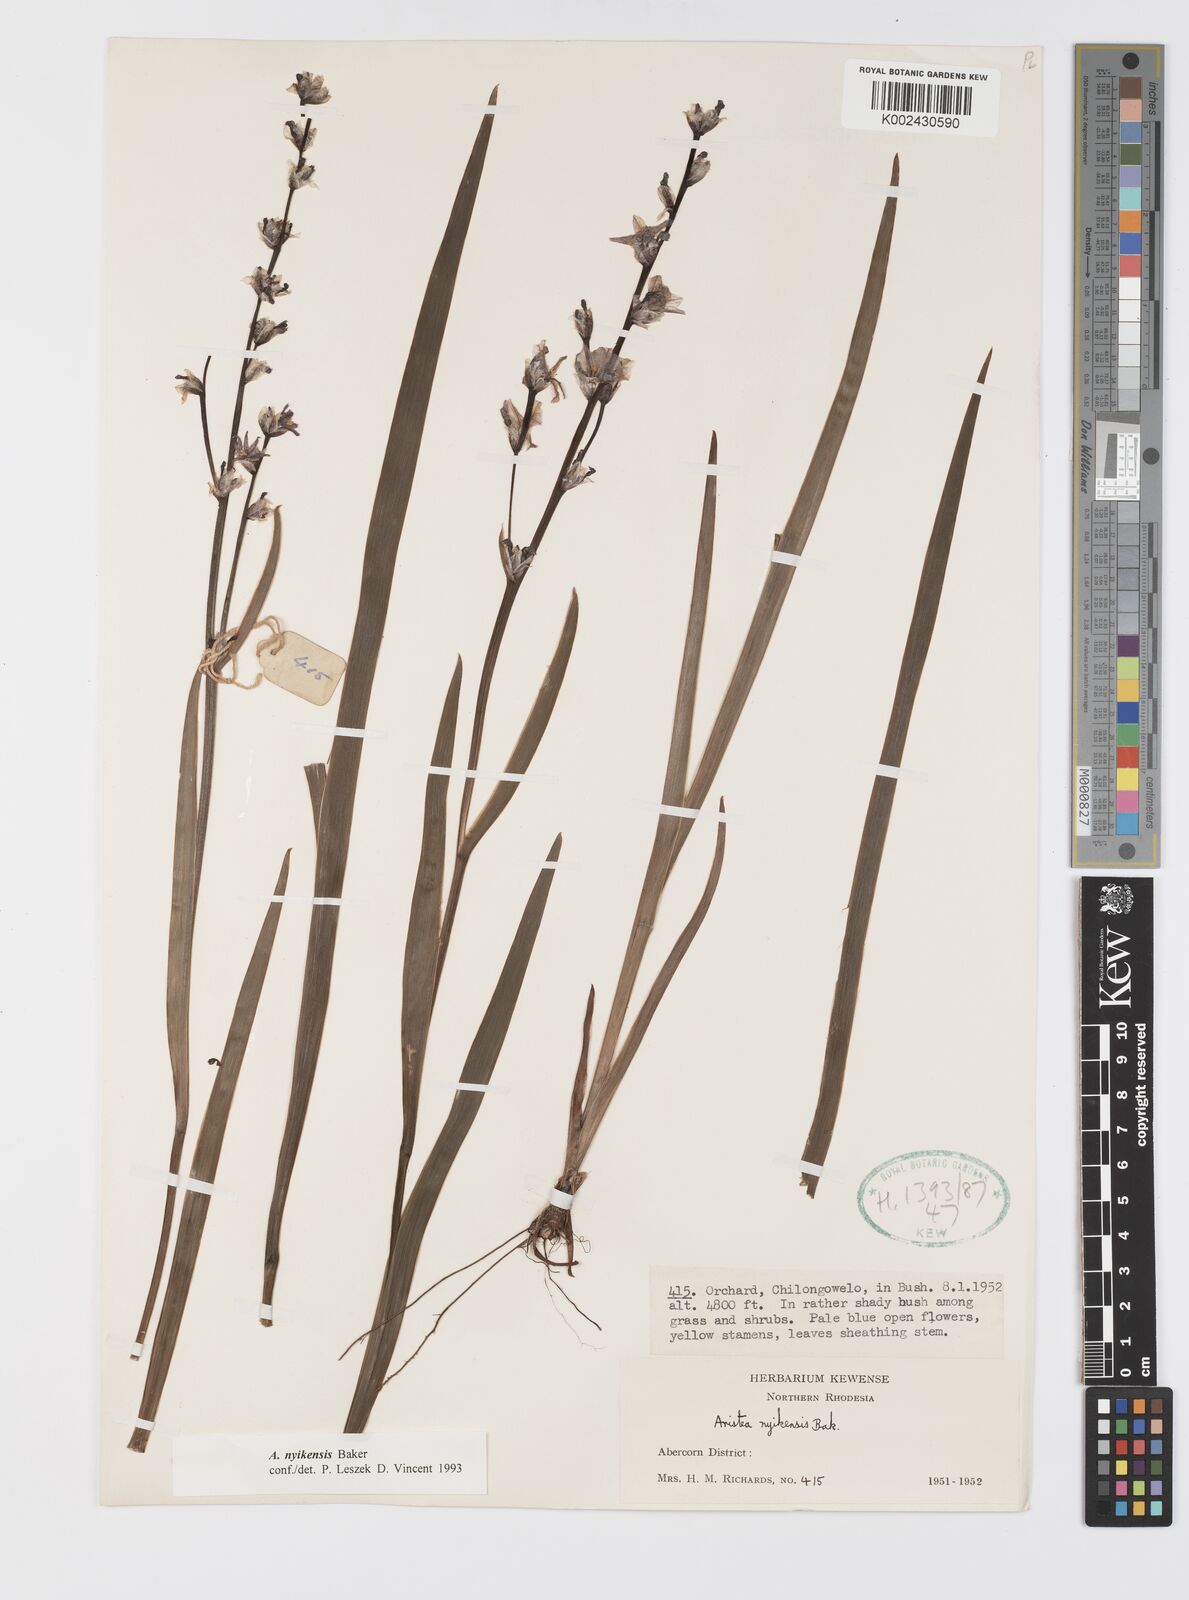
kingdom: Plantae
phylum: Tracheophyta
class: Liliopsida
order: Asparagales
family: Iridaceae
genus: Aristea
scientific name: Aristea nyikensis
